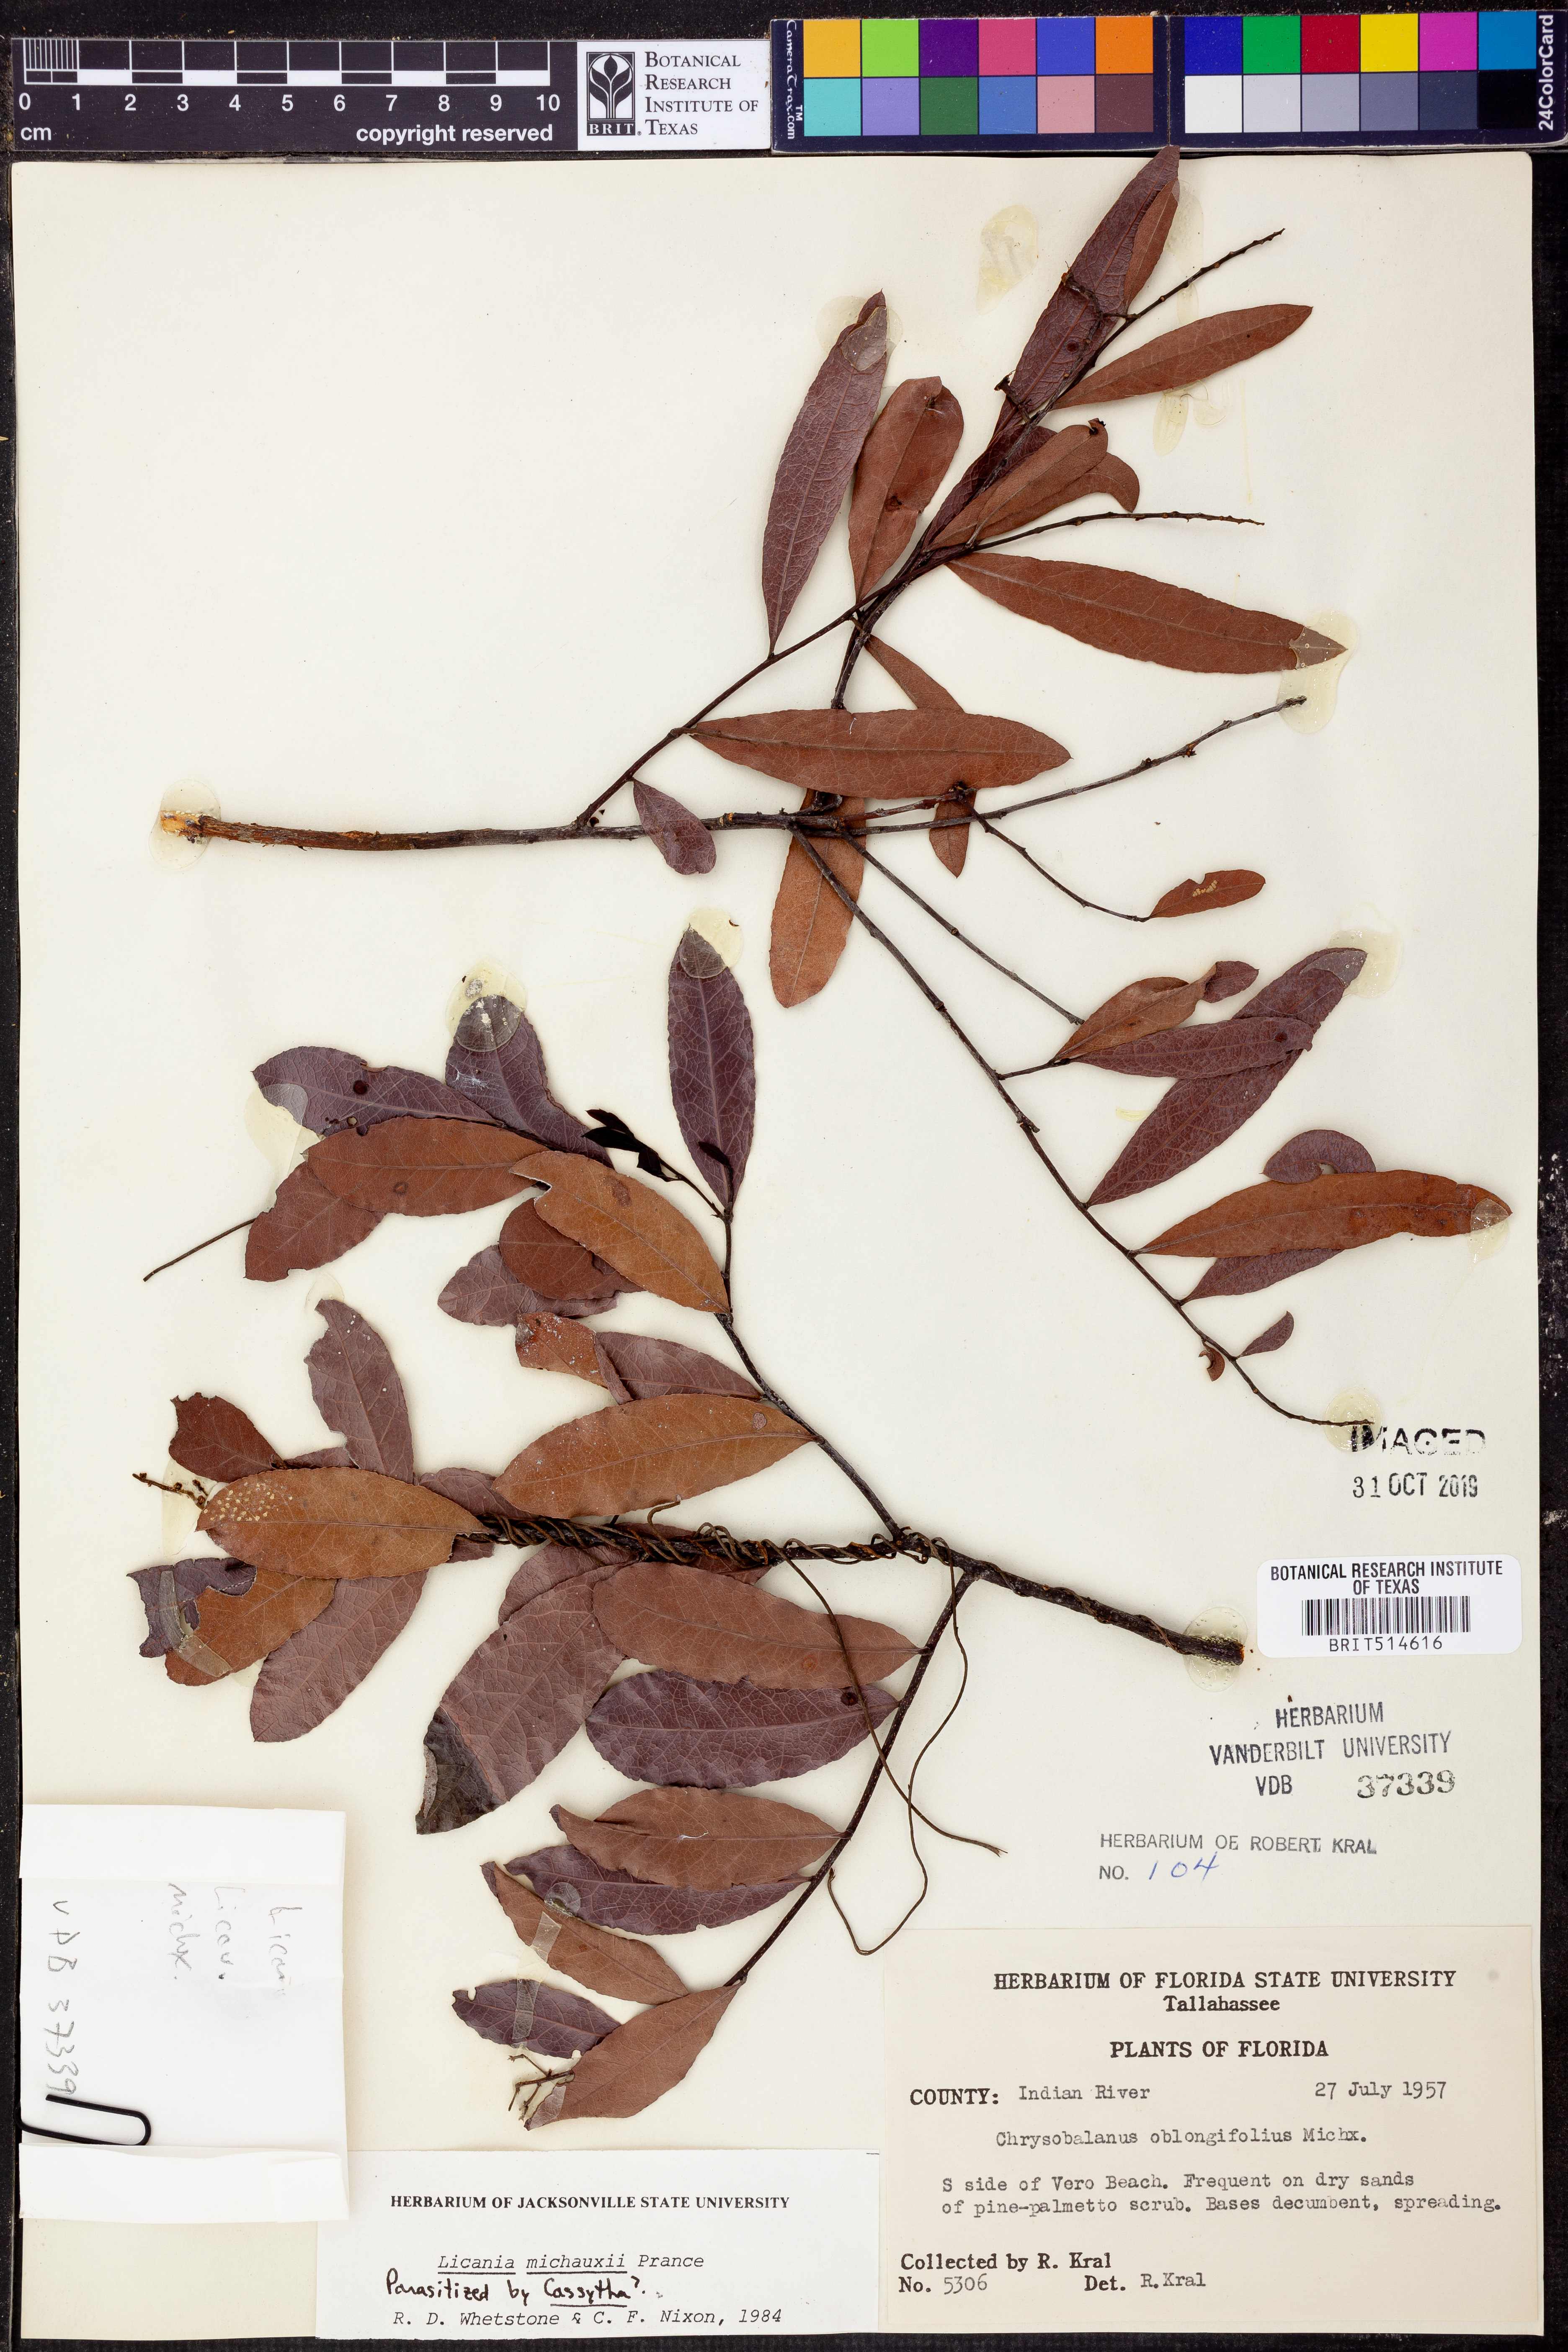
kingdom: Plantae
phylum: Tracheophyta
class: Magnoliopsida
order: Malpighiales
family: Chrysobalanaceae
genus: Geobalanus
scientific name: Geobalanus oblongifolius
